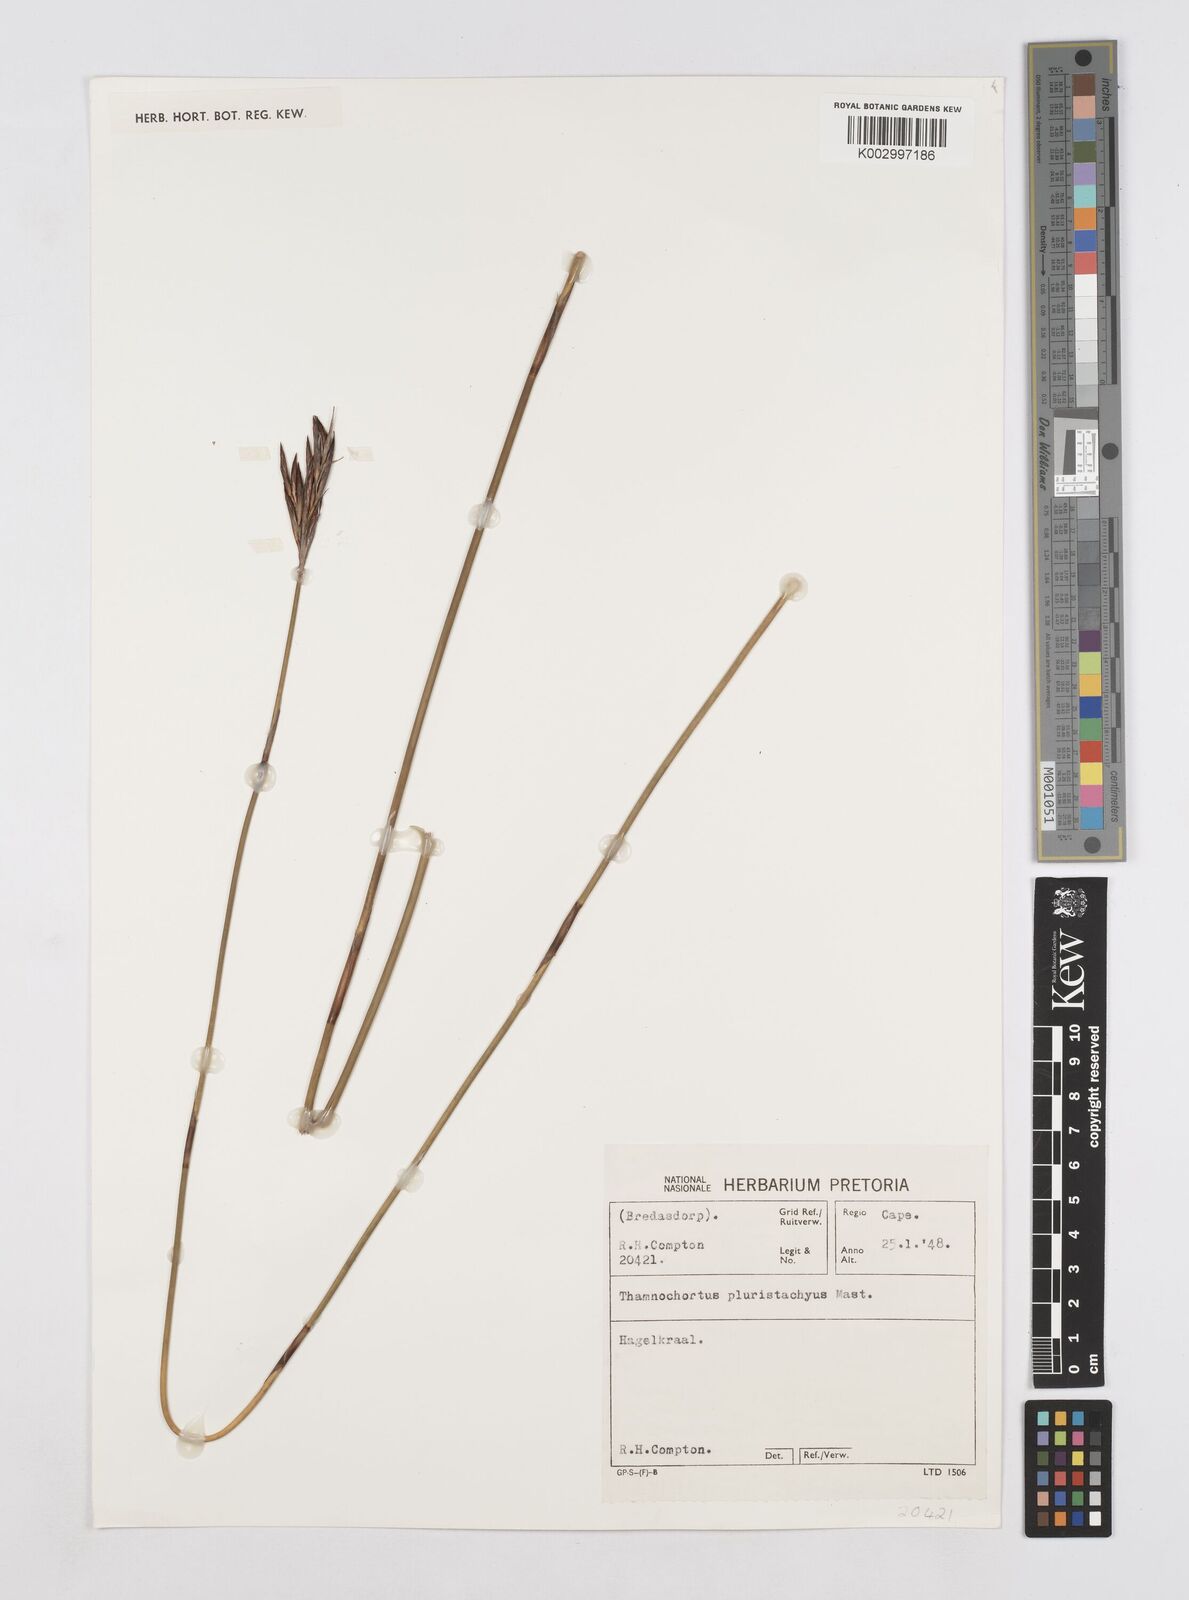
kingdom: Plantae
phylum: Tracheophyta
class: Liliopsida
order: Poales
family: Restionaceae
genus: Thamnochortus
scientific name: Thamnochortus pluristachyus
